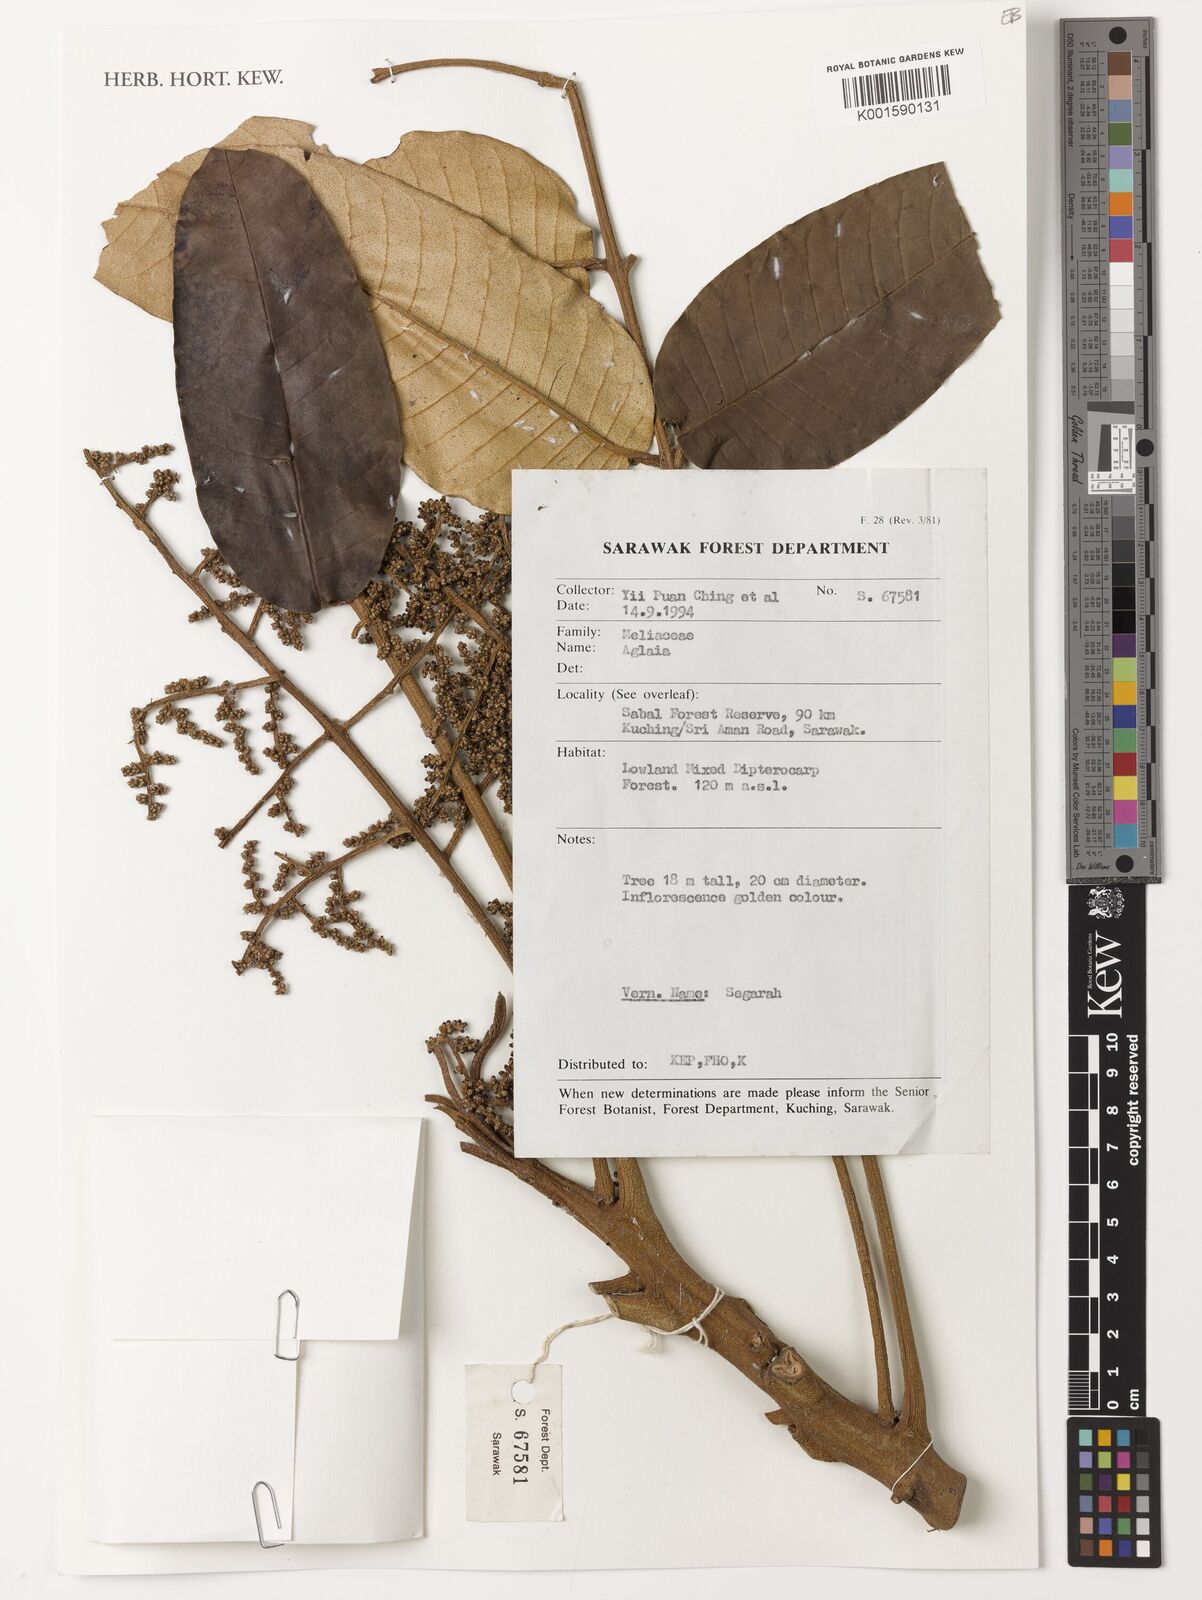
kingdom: Plantae
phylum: Tracheophyta
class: Magnoliopsida
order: Sapindales
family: Meliaceae
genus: Aglaia
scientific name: Aglaia
